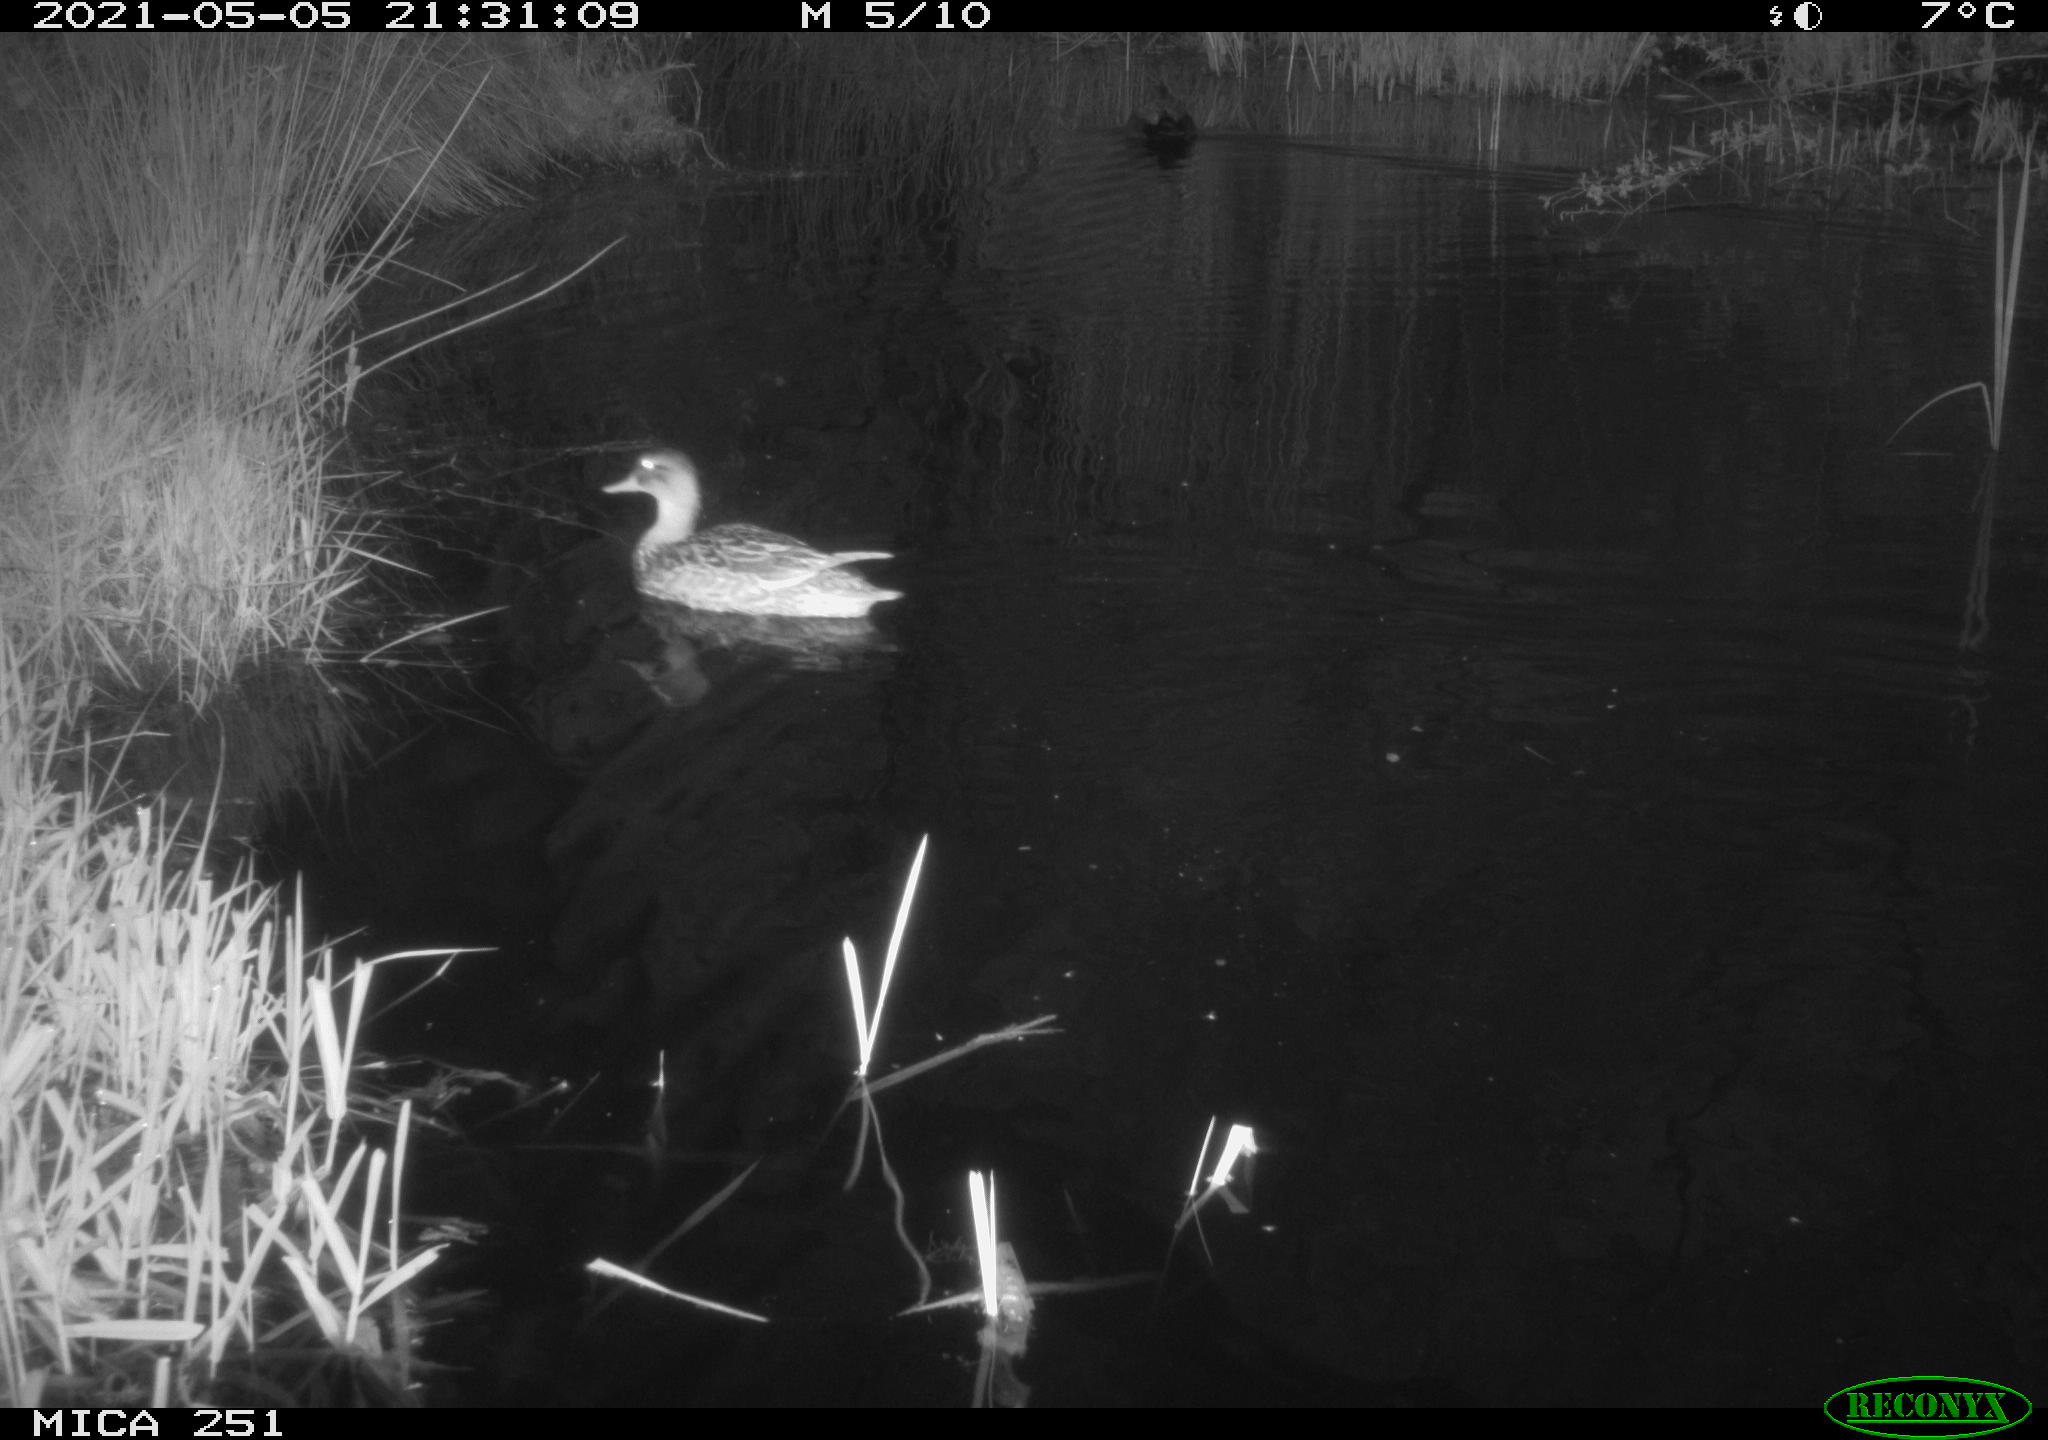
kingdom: Animalia
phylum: Chordata
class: Aves
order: Anseriformes
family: Anatidae
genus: Anas
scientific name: Anas platyrhynchos
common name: Mallard
